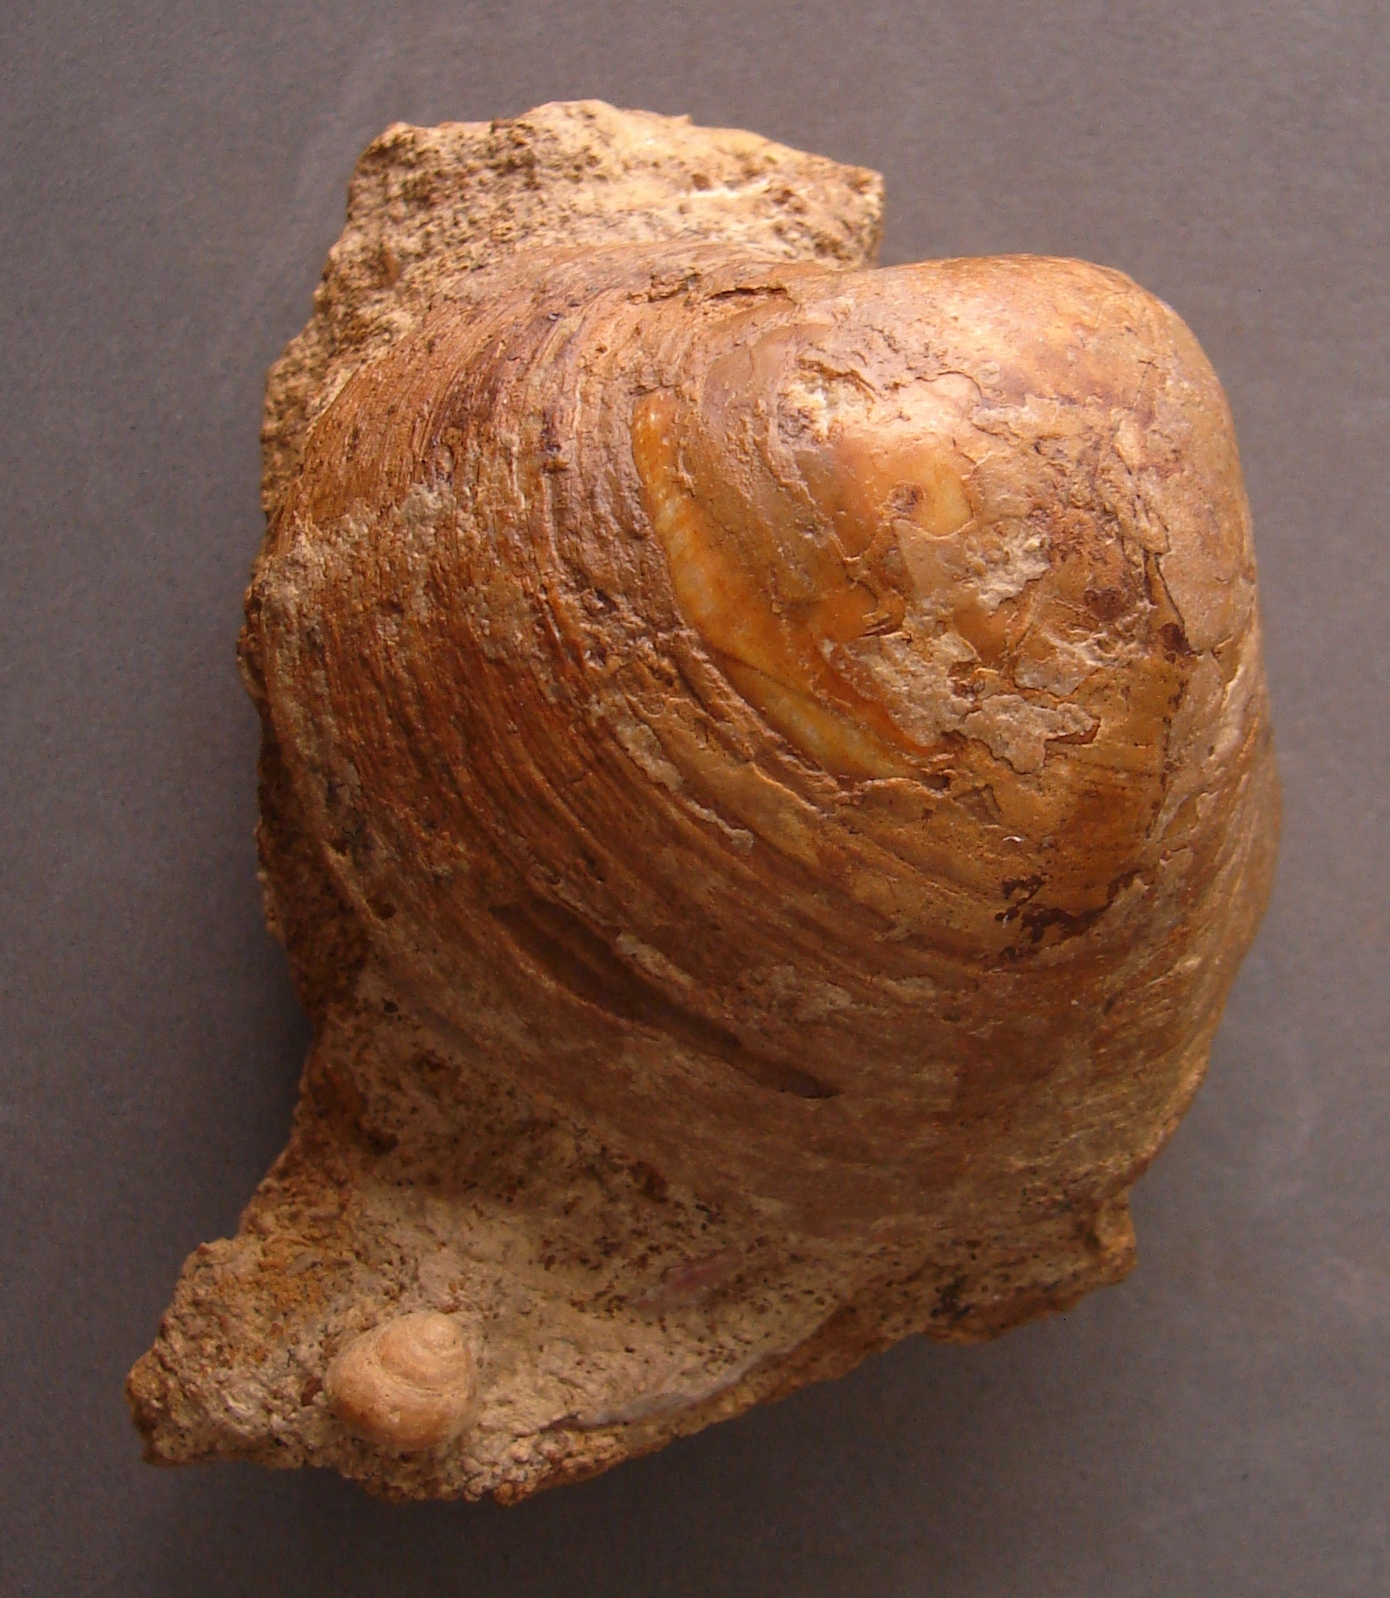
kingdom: Animalia
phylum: Mollusca
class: Gastropoda
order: Trochida
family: Ataphridae
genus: Ataphrus
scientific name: Ataphrus Trochus acmon
